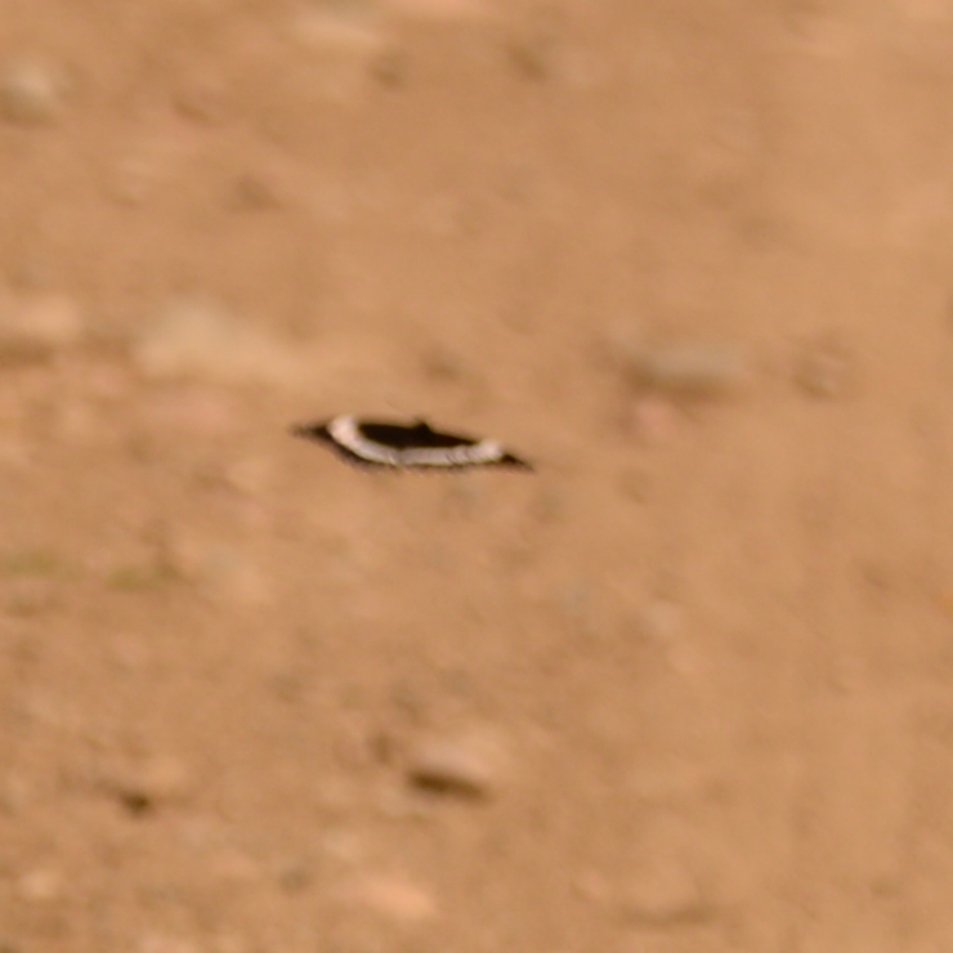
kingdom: Animalia
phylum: Arthropoda
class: Insecta
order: Lepidoptera
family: Nymphalidae
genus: Limenitis
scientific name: Limenitis arthemis
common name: Red-spotted Admiral
